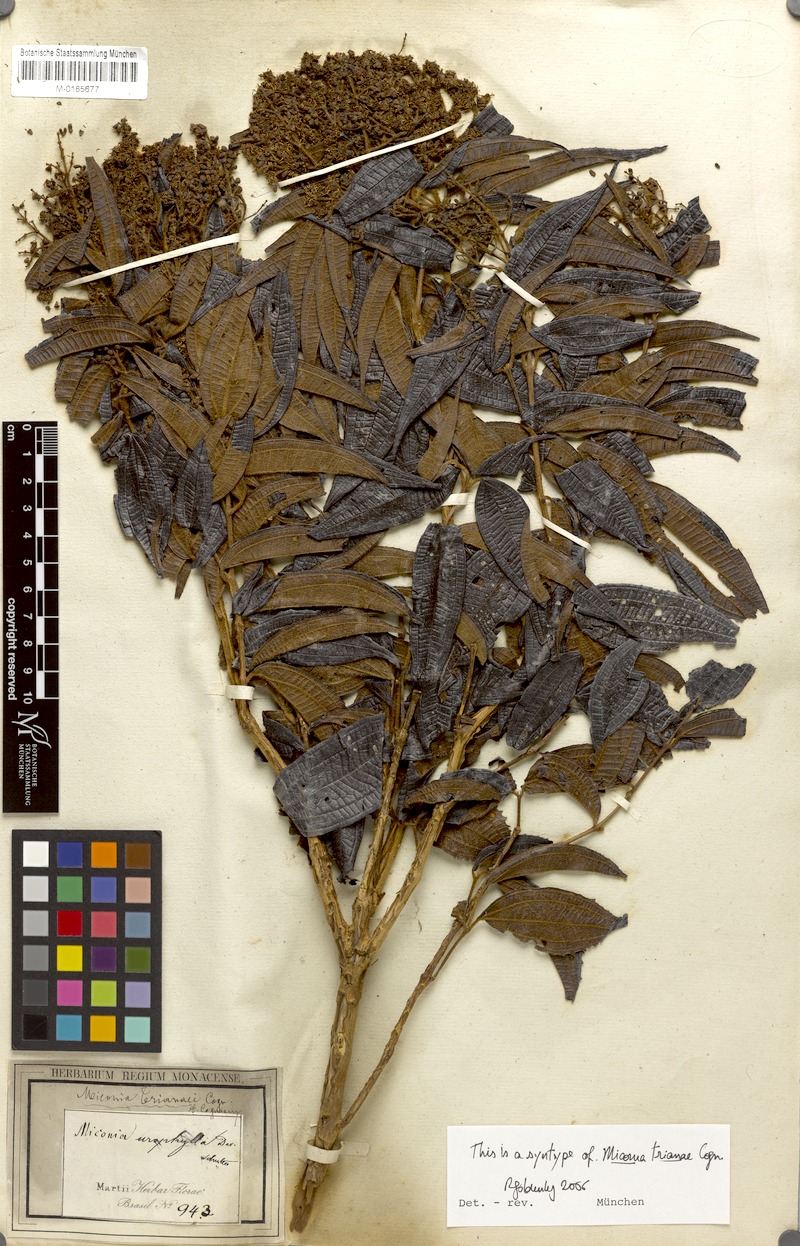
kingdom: Plantae
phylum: Tracheophyta
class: Magnoliopsida
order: Myrtales
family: Melastomataceae
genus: Miconia
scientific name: Miconia trianae
